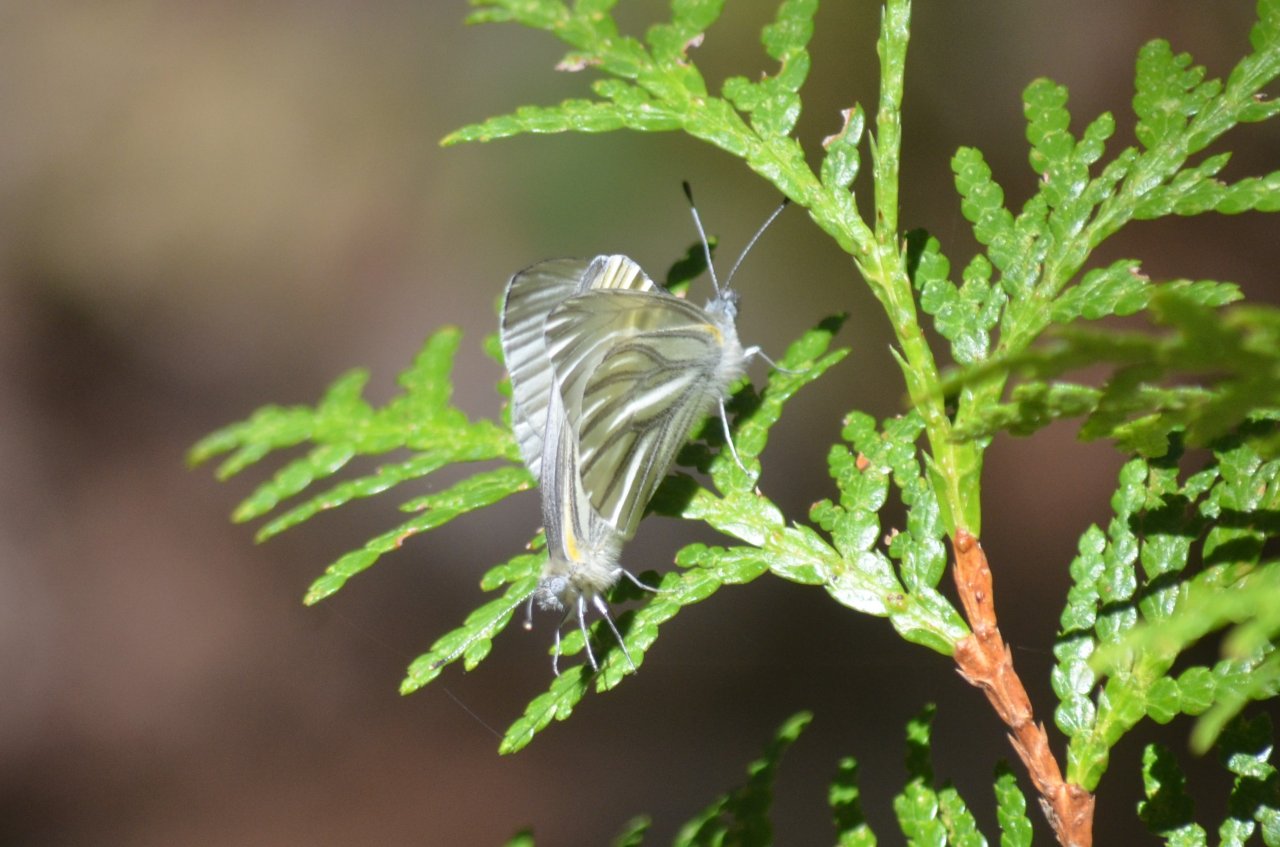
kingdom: Animalia
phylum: Arthropoda
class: Insecta
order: Lepidoptera
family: Pieridae
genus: Pieris
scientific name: Pieris oleracea
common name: Mustard White
